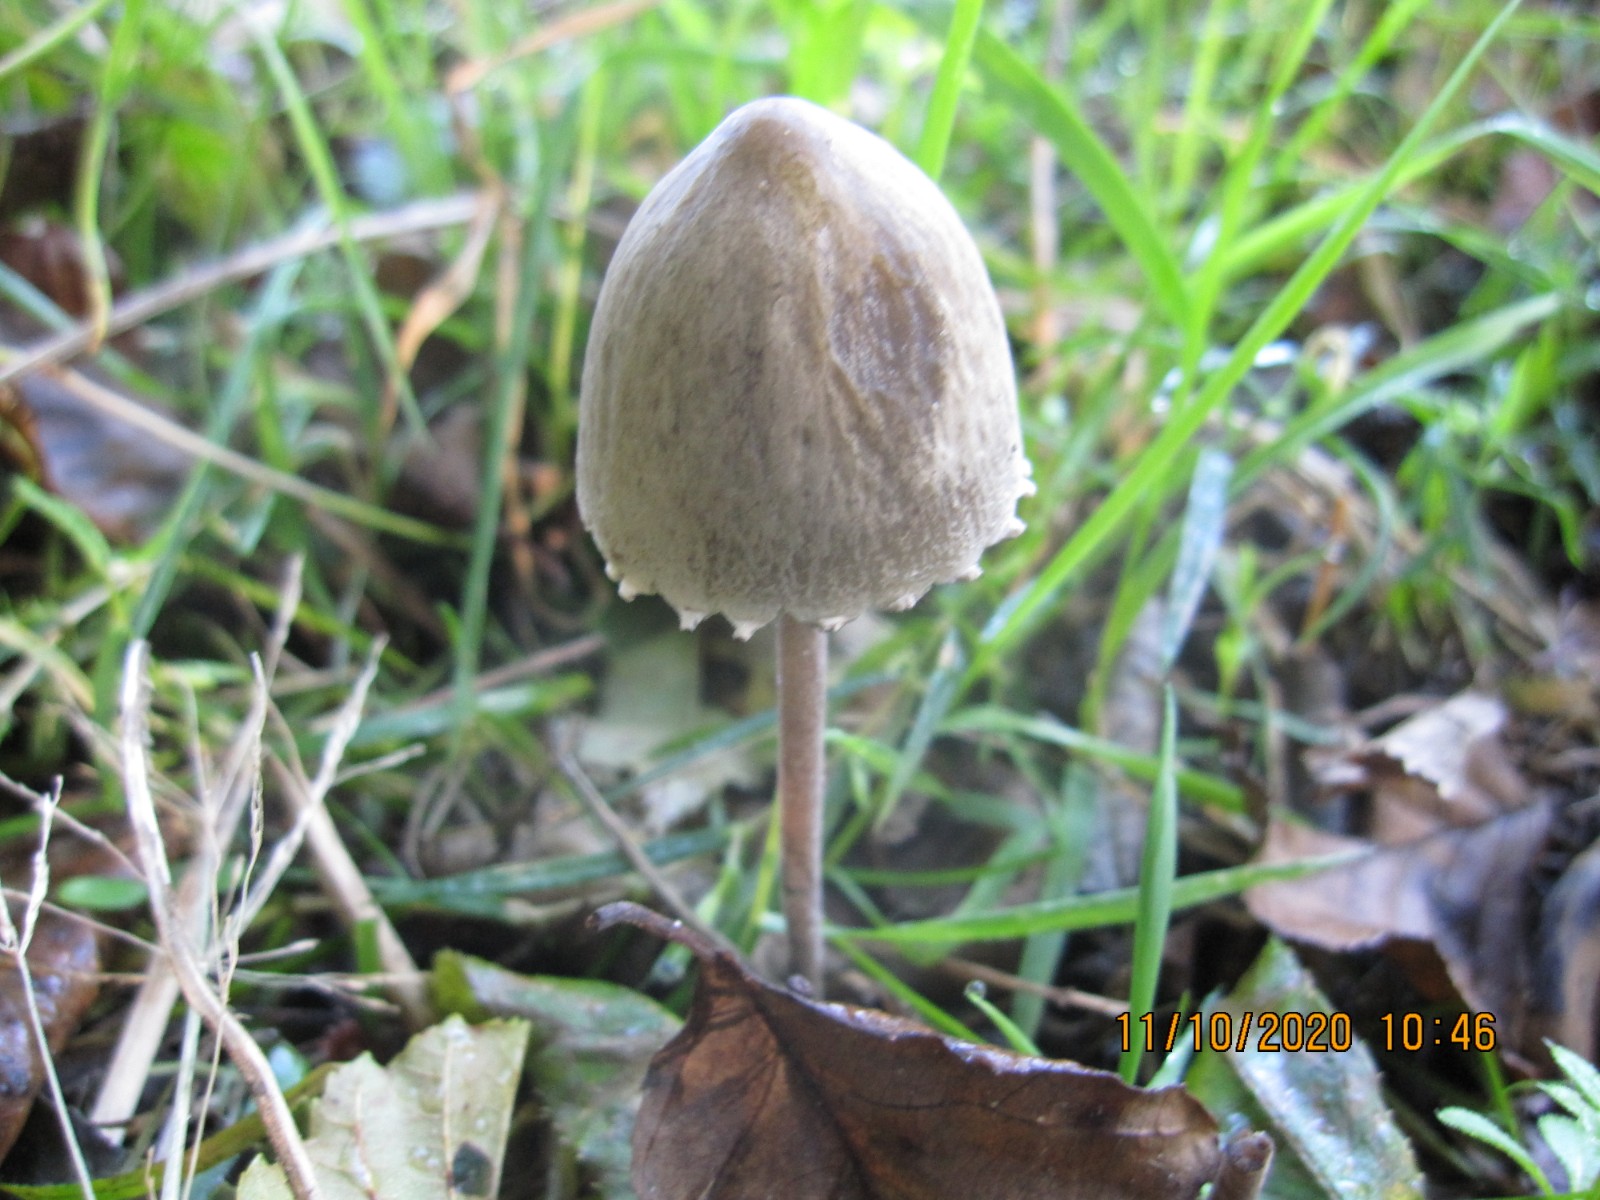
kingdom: Fungi
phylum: Basidiomycota
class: Agaricomycetes
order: Agaricales
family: Bolbitiaceae
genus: Panaeolus
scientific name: Panaeolus papilionaceus
